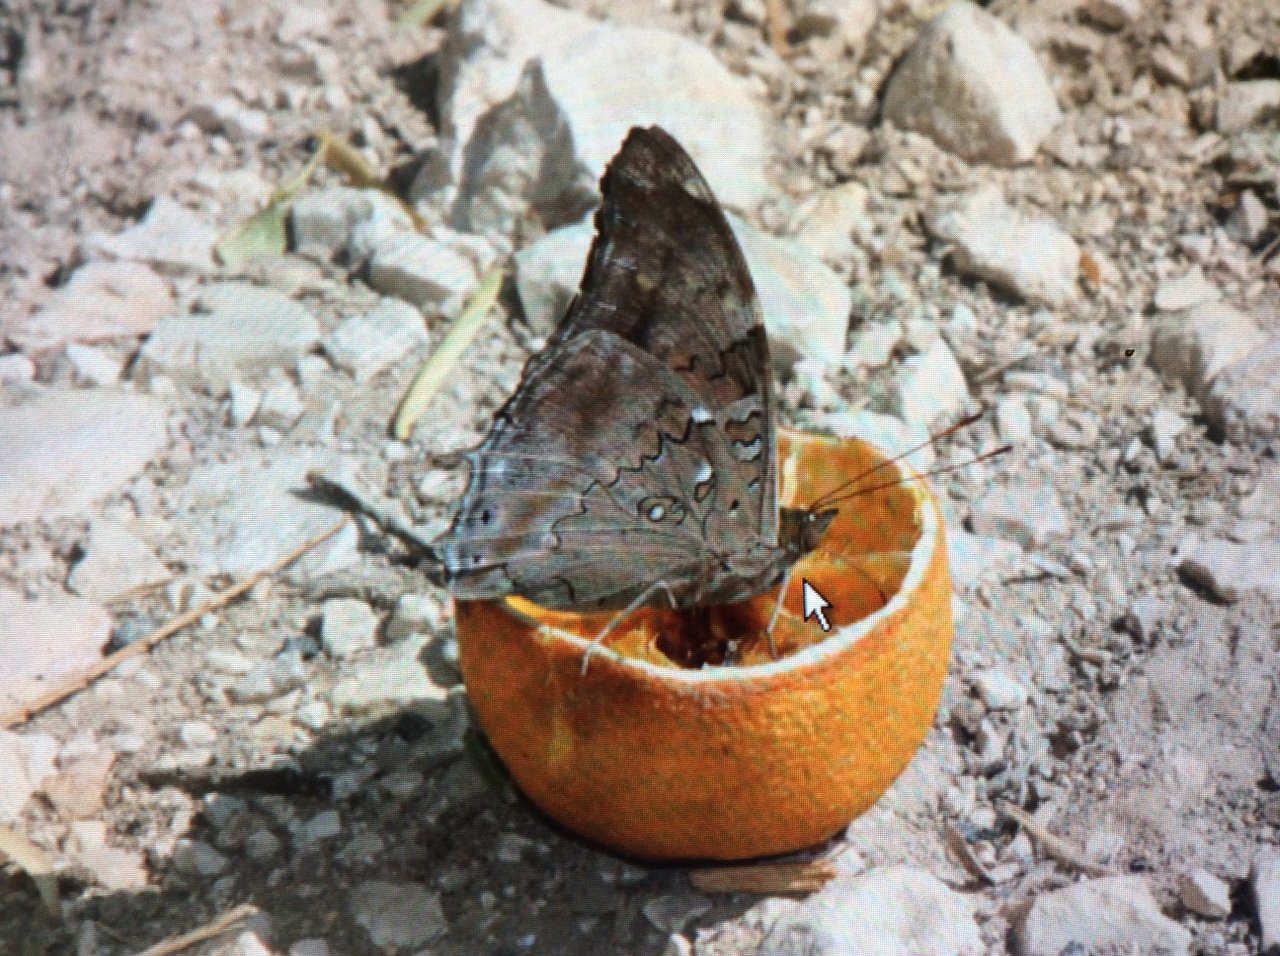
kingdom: Animalia
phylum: Arthropoda
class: Insecta
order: Lepidoptera
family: Nymphalidae
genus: Coea
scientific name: Coea acheronta
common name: Tailed Cecropian
